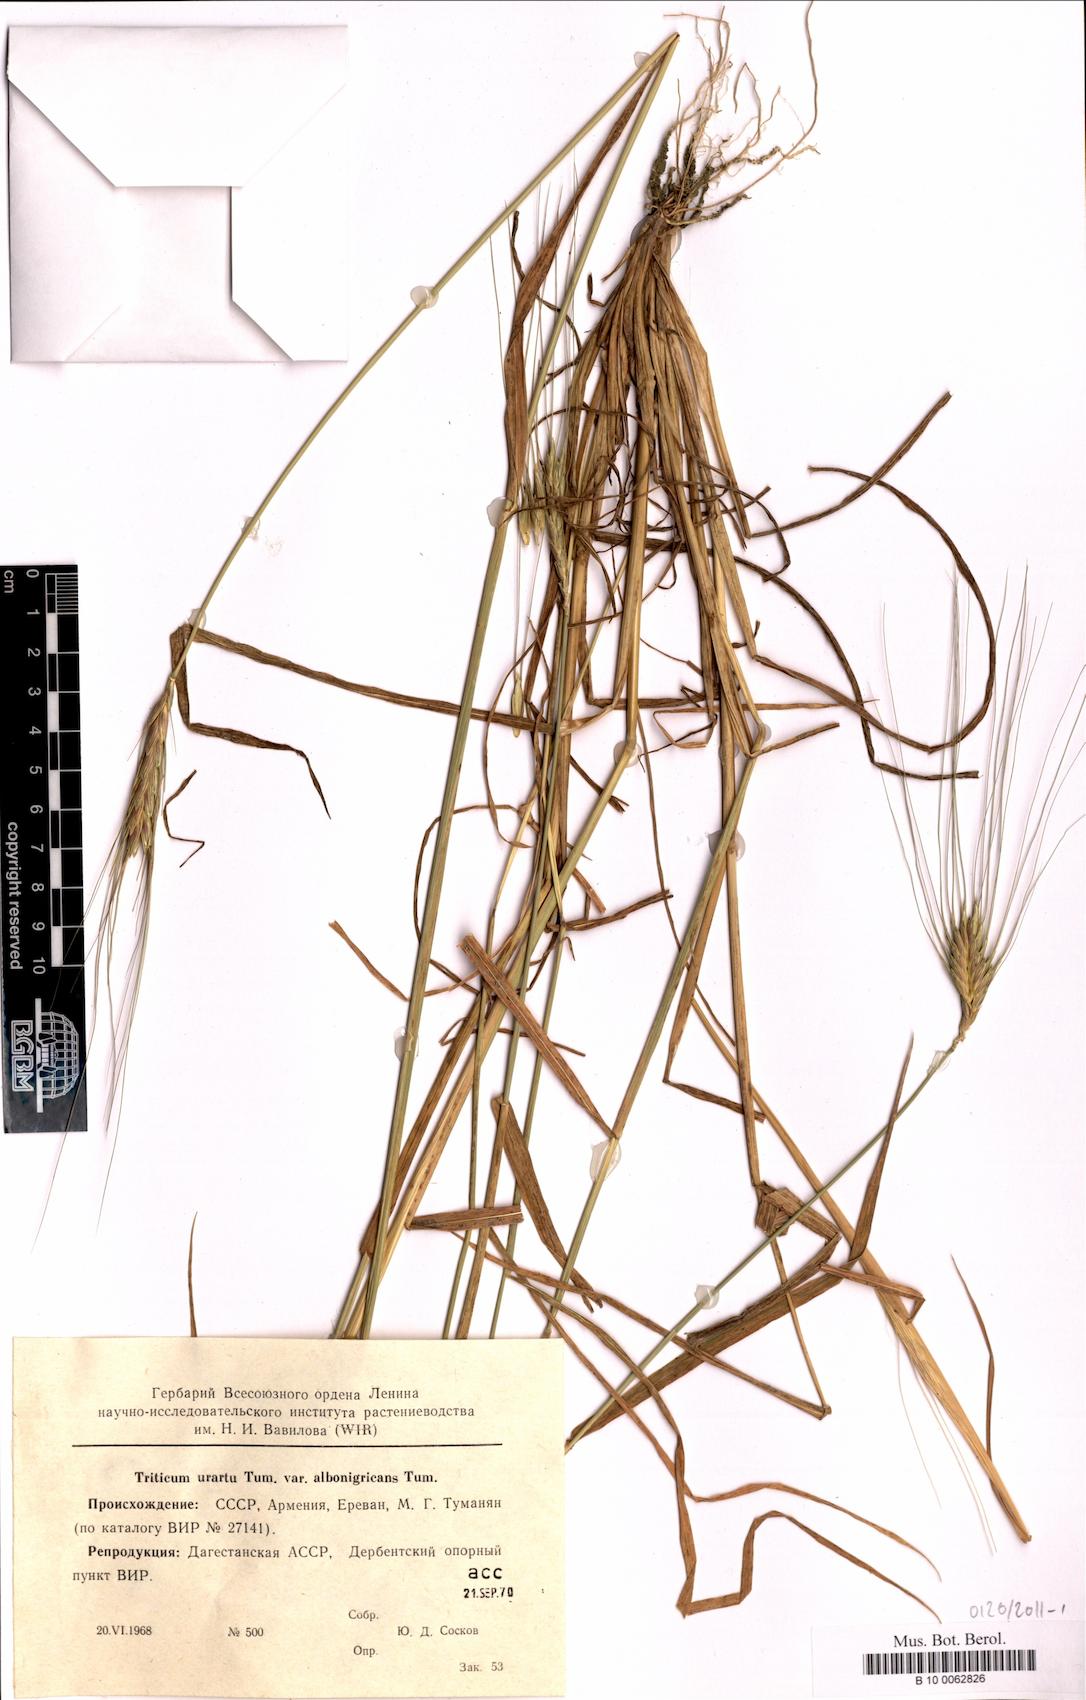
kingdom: Plantae
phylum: Tracheophyta
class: Liliopsida
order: Poales
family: Poaceae
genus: Triticum
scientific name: Triticum urartu
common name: Red wild einkorn
